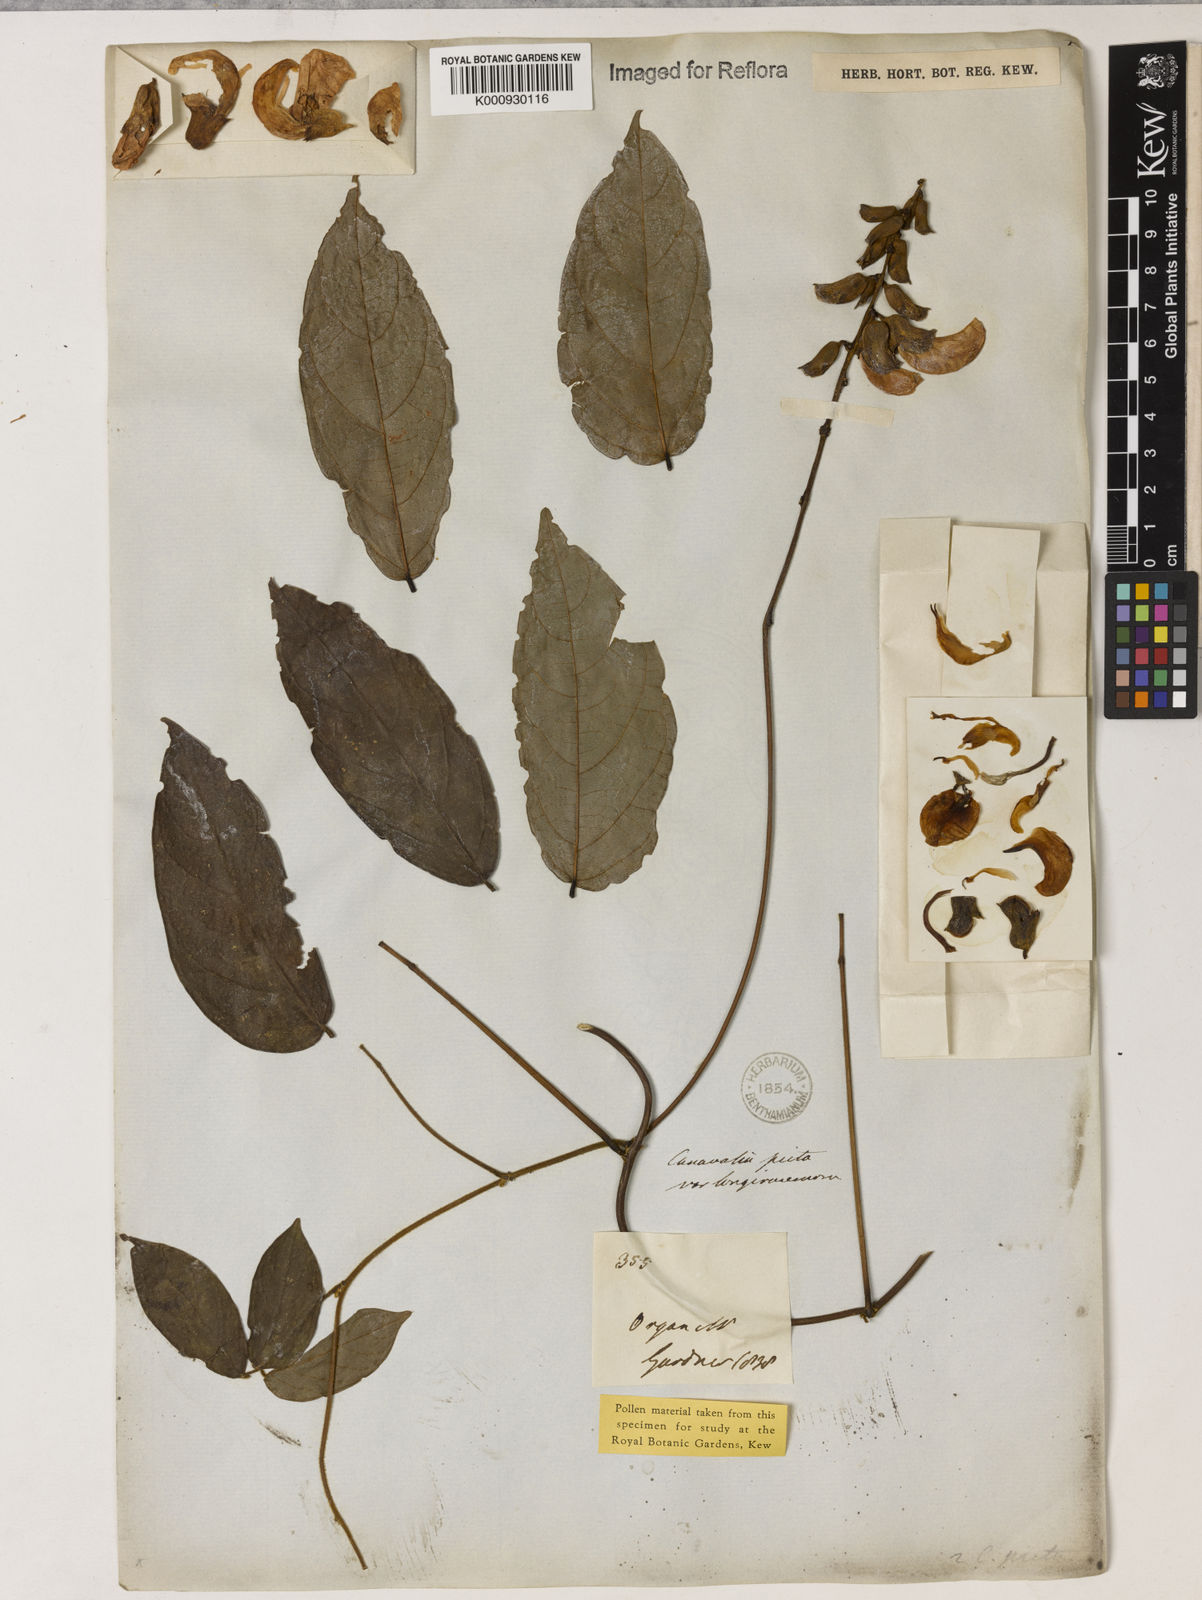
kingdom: Plantae
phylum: Tracheophyta
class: Magnoliopsida
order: Fabales
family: Fabaceae
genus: Canavalia
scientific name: Canavalia picta
